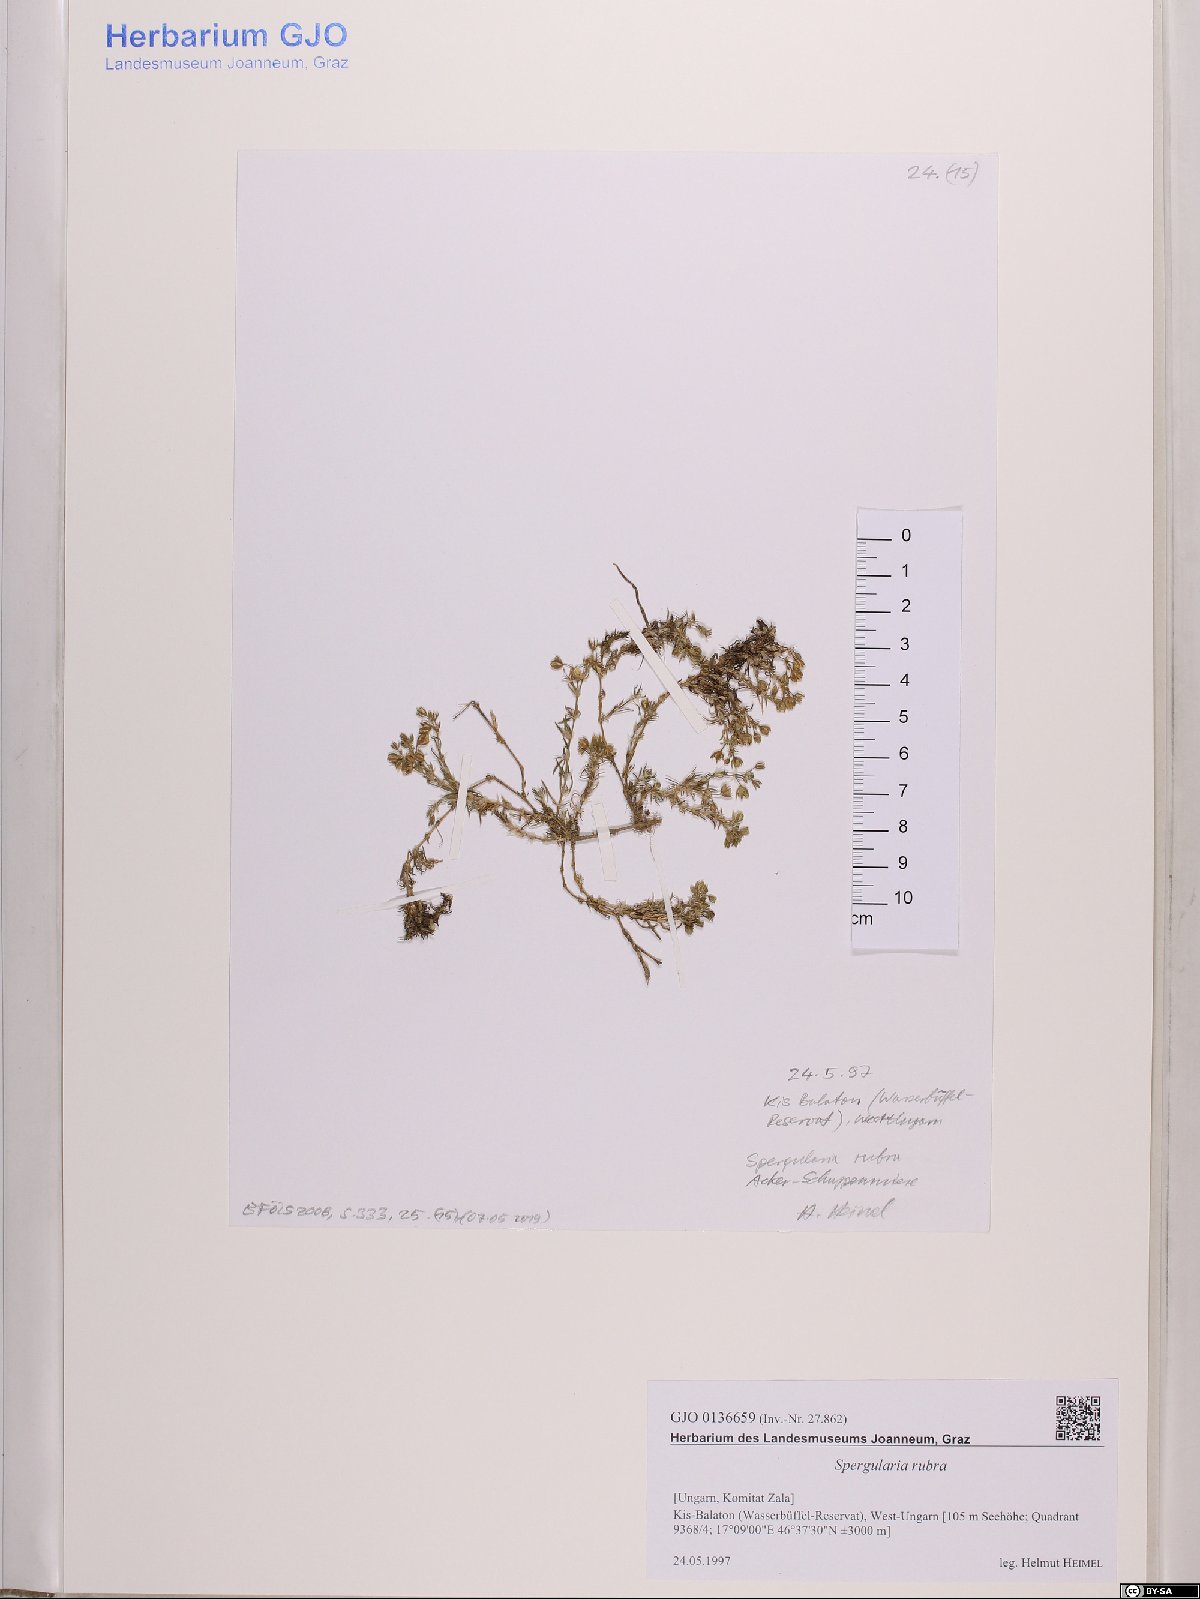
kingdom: Plantae
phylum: Tracheophyta
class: Magnoliopsida
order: Caryophyllales
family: Caryophyllaceae
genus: Spergularia
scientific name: Spergularia rubra
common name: Red sand-spurrey
